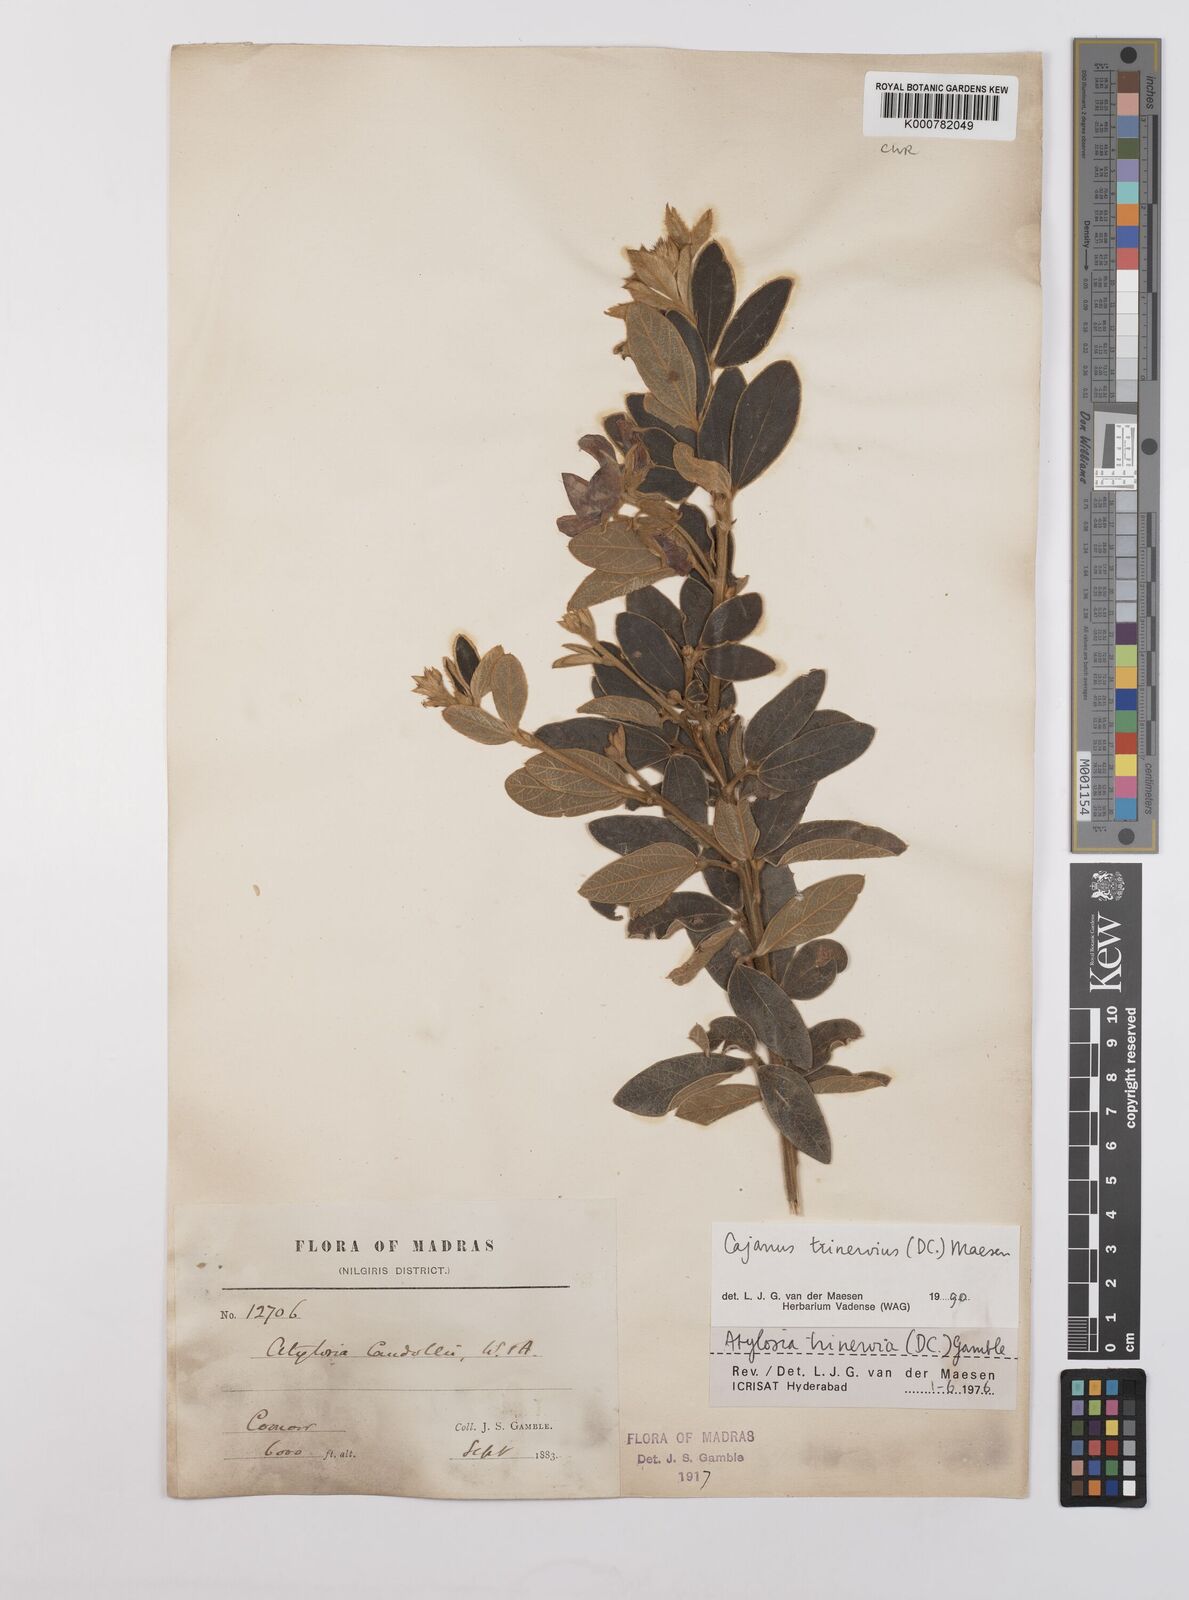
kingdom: Plantae
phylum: Tracheophyta
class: Magnoliopsida
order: Fabales
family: Fabaceae
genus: Cajanus
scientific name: Cajanus trinervius
